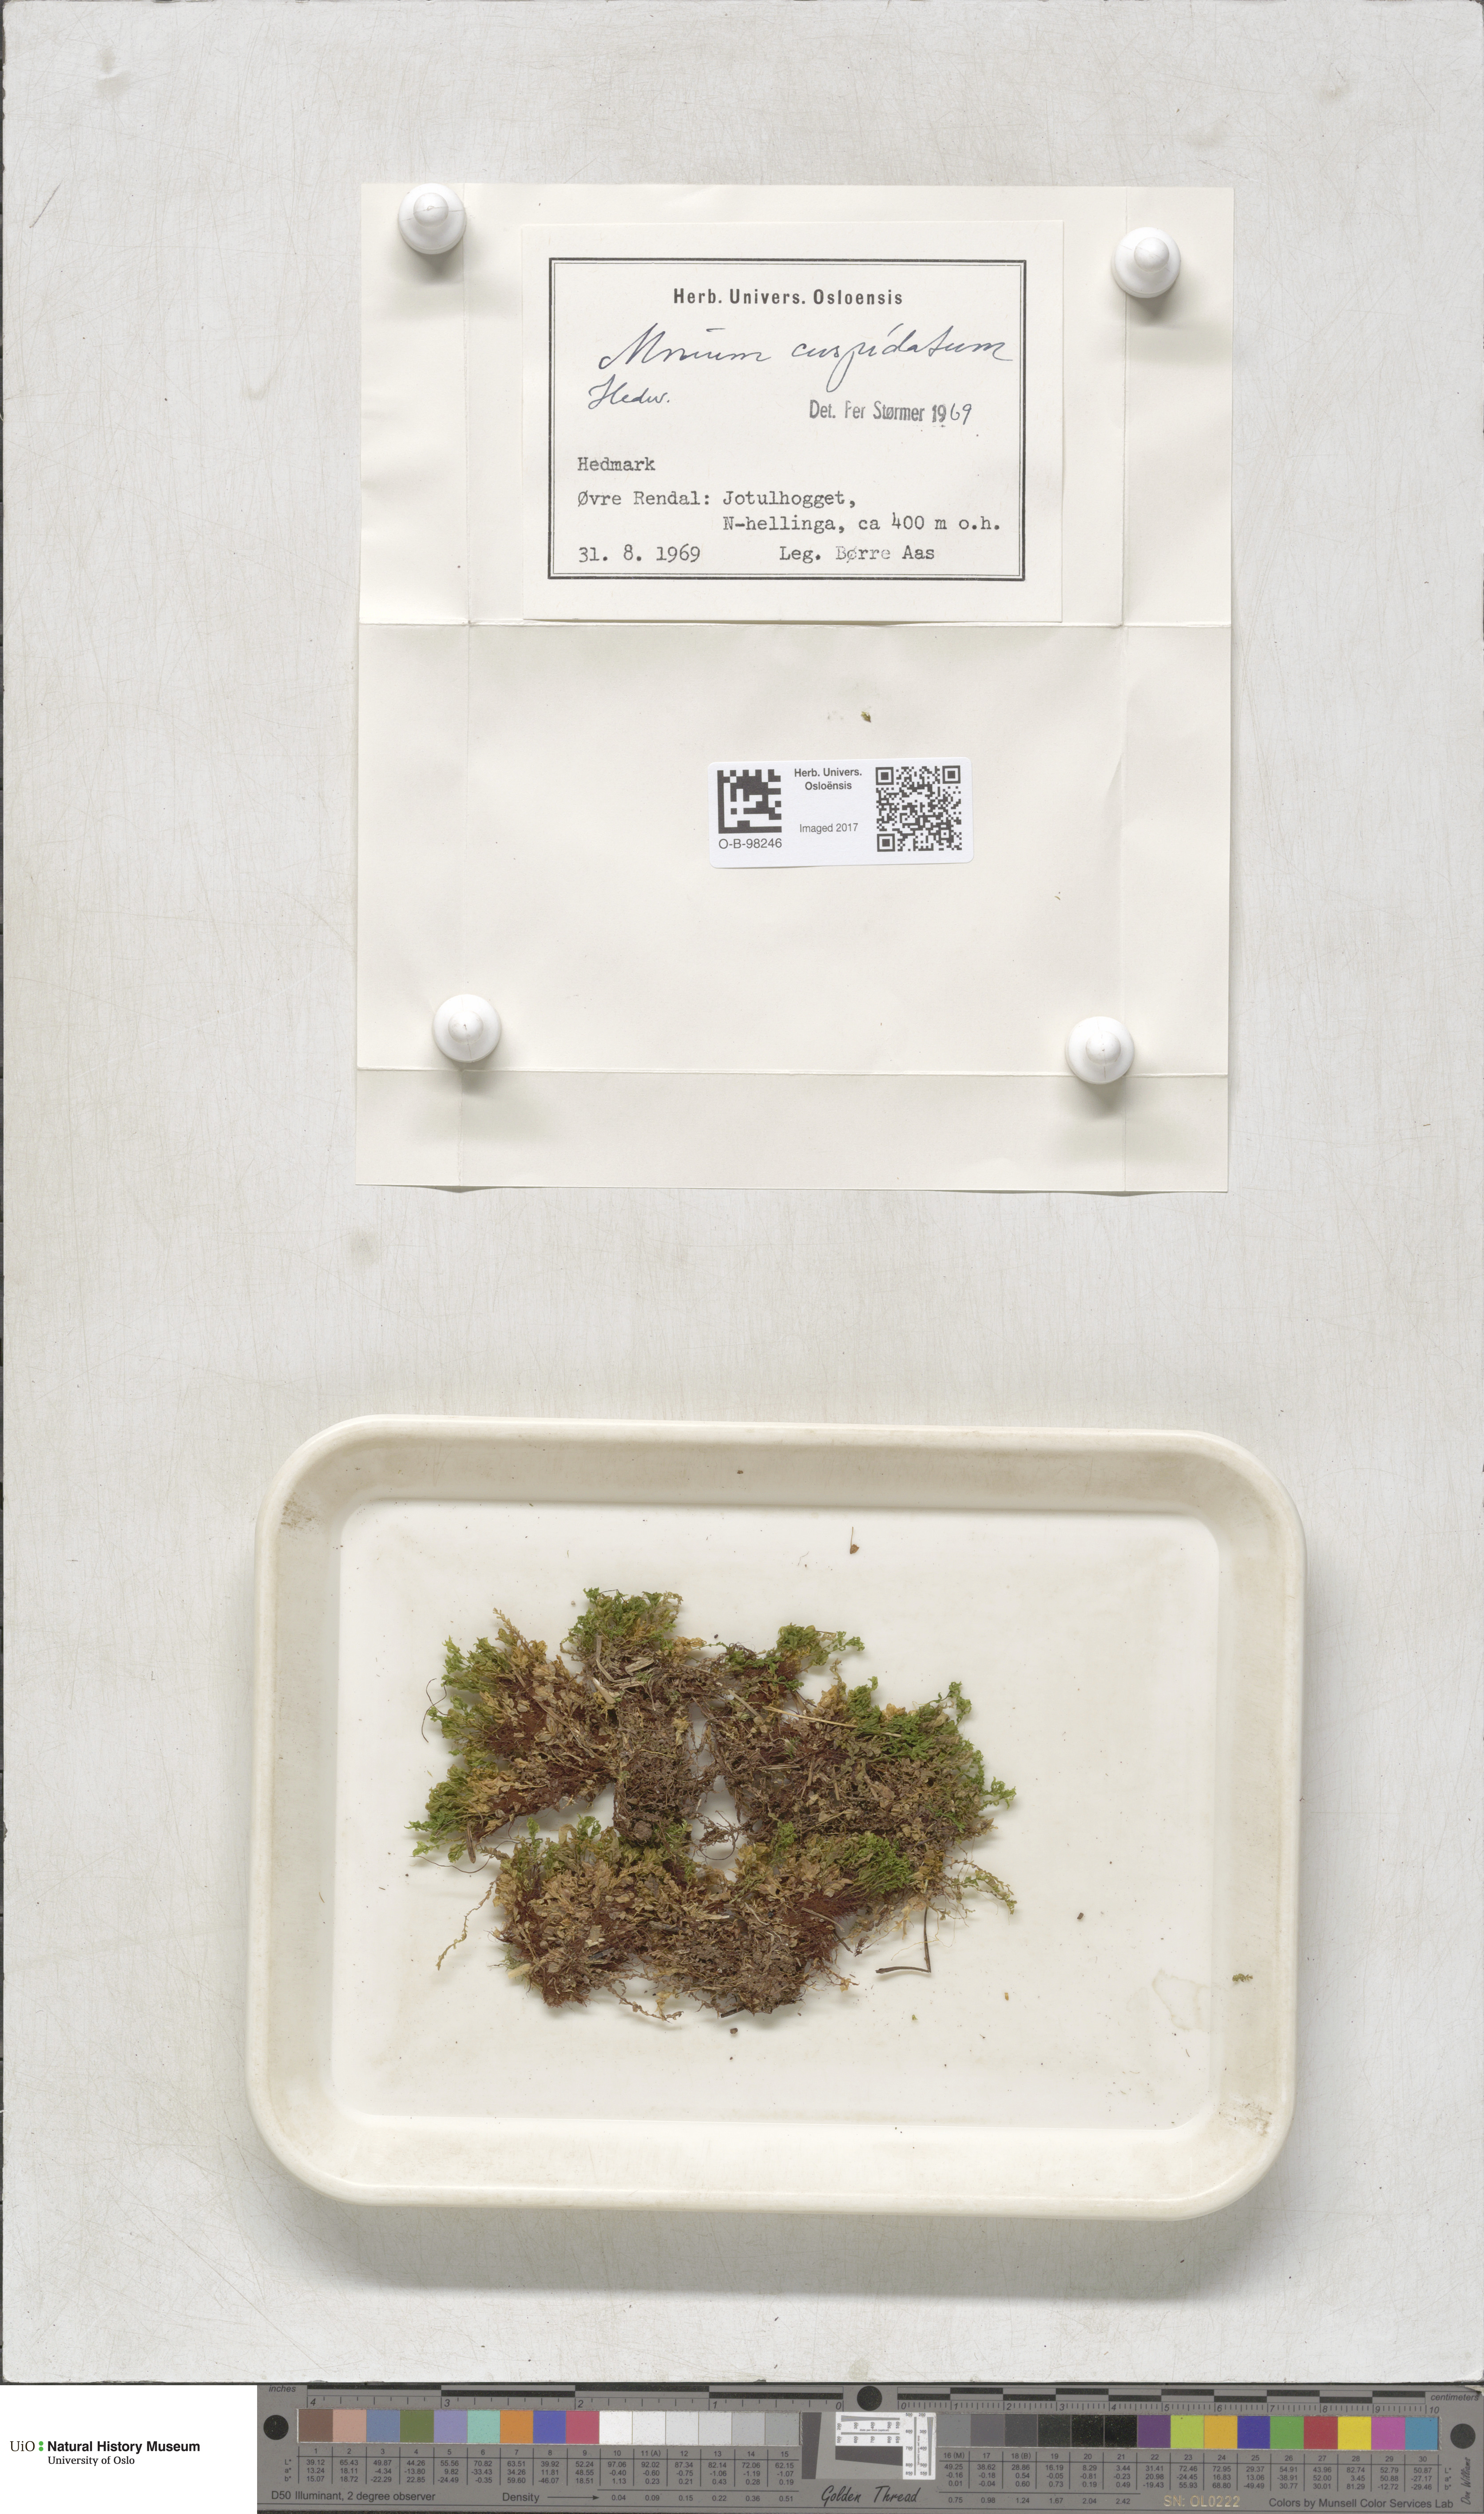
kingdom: Plantae
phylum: Bryophyta
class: Bryopsida
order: Bryales
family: Mniaceae
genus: Plagiomnium
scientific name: Plagiomnium cuspidatum
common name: Woodsy leafy moss
